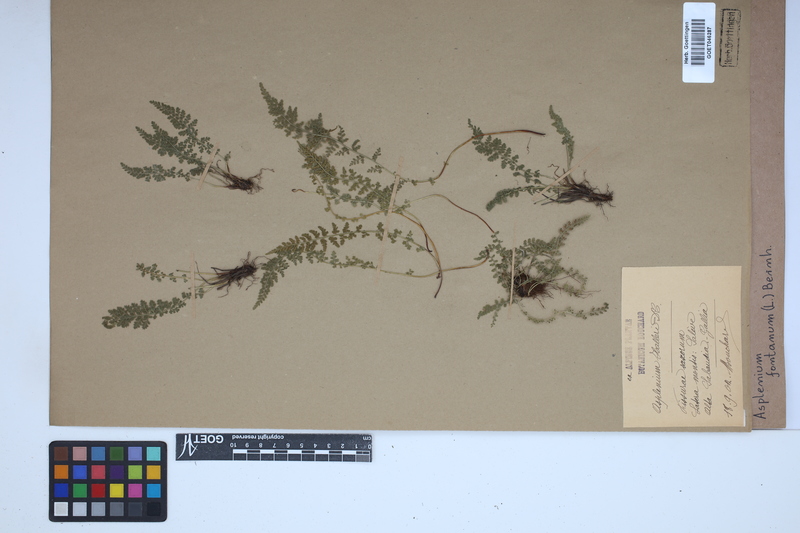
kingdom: Plantae
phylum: Tracheophyta
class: Polypodiopsida
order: Polypodiales
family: Aspleniaceae
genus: Asplenium
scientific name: Asplenium fontanum
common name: Fountain spleenwort
